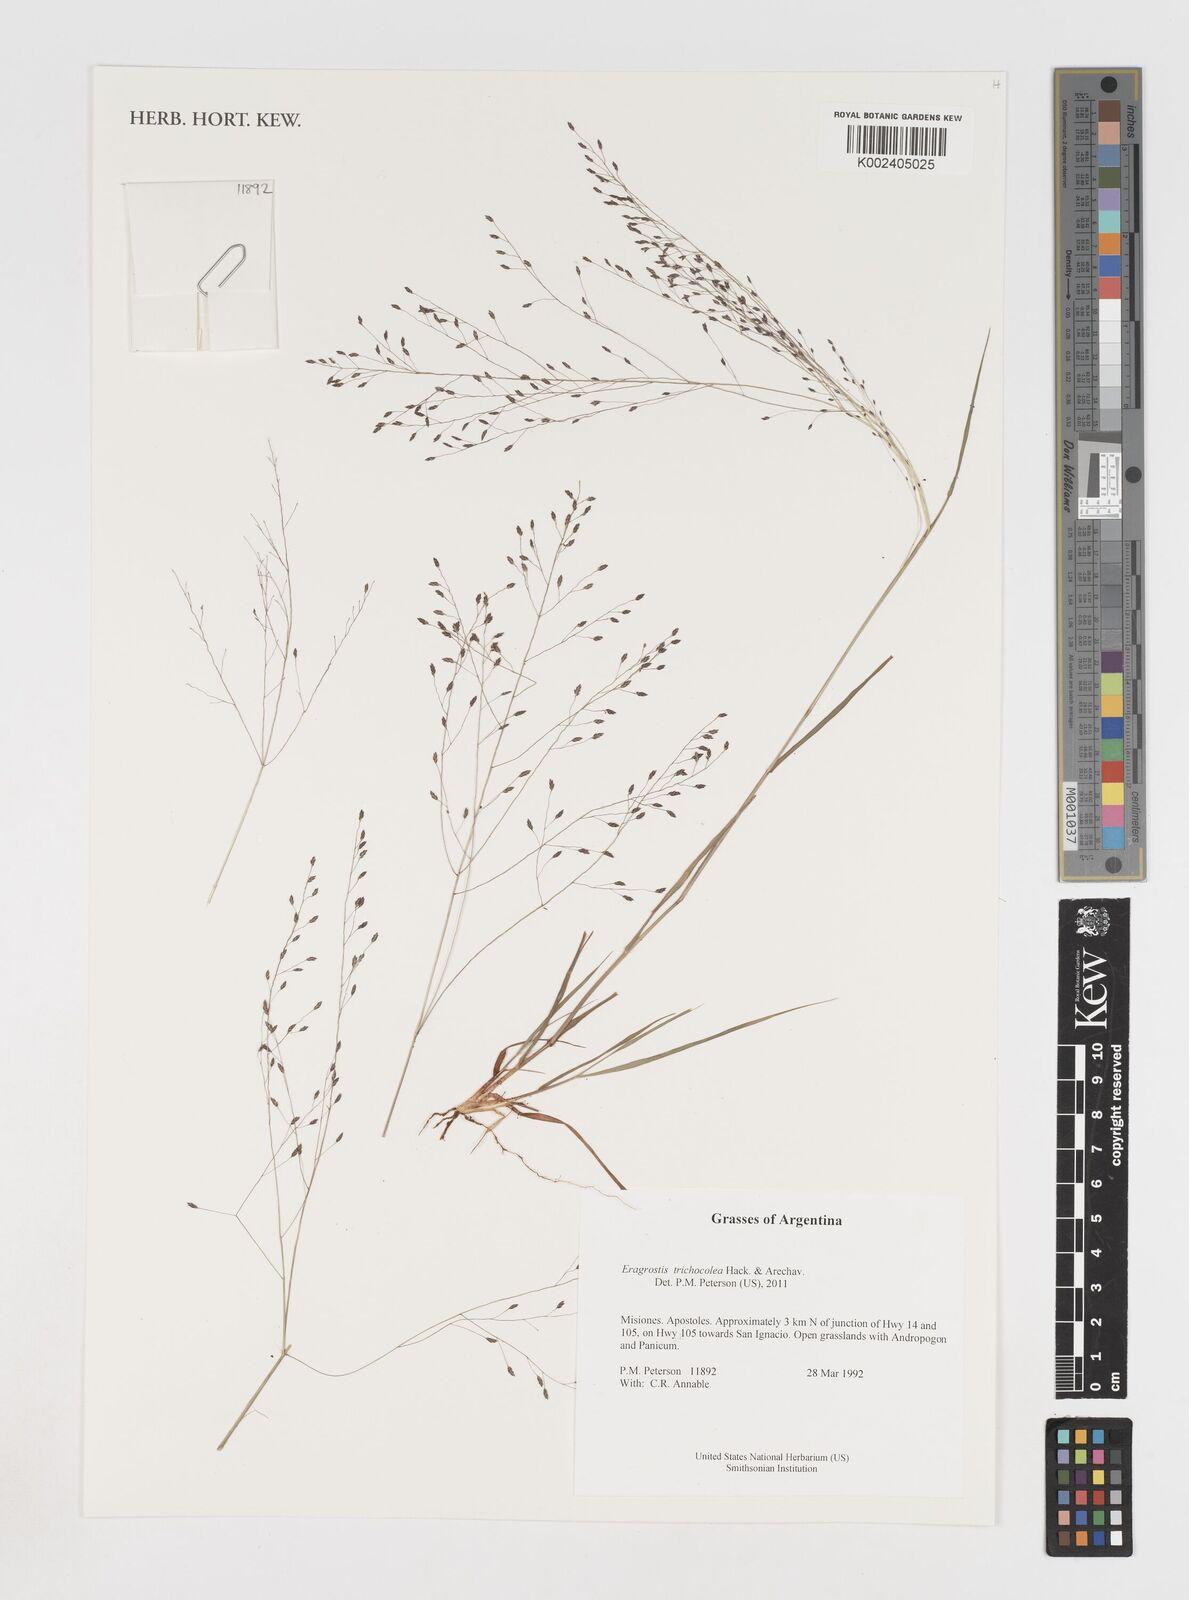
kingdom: Plantae
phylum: Tracheophyta
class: Liliopsida
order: Poales
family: Poaceae
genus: Eragrostis
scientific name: Eragrostis trichocolea
